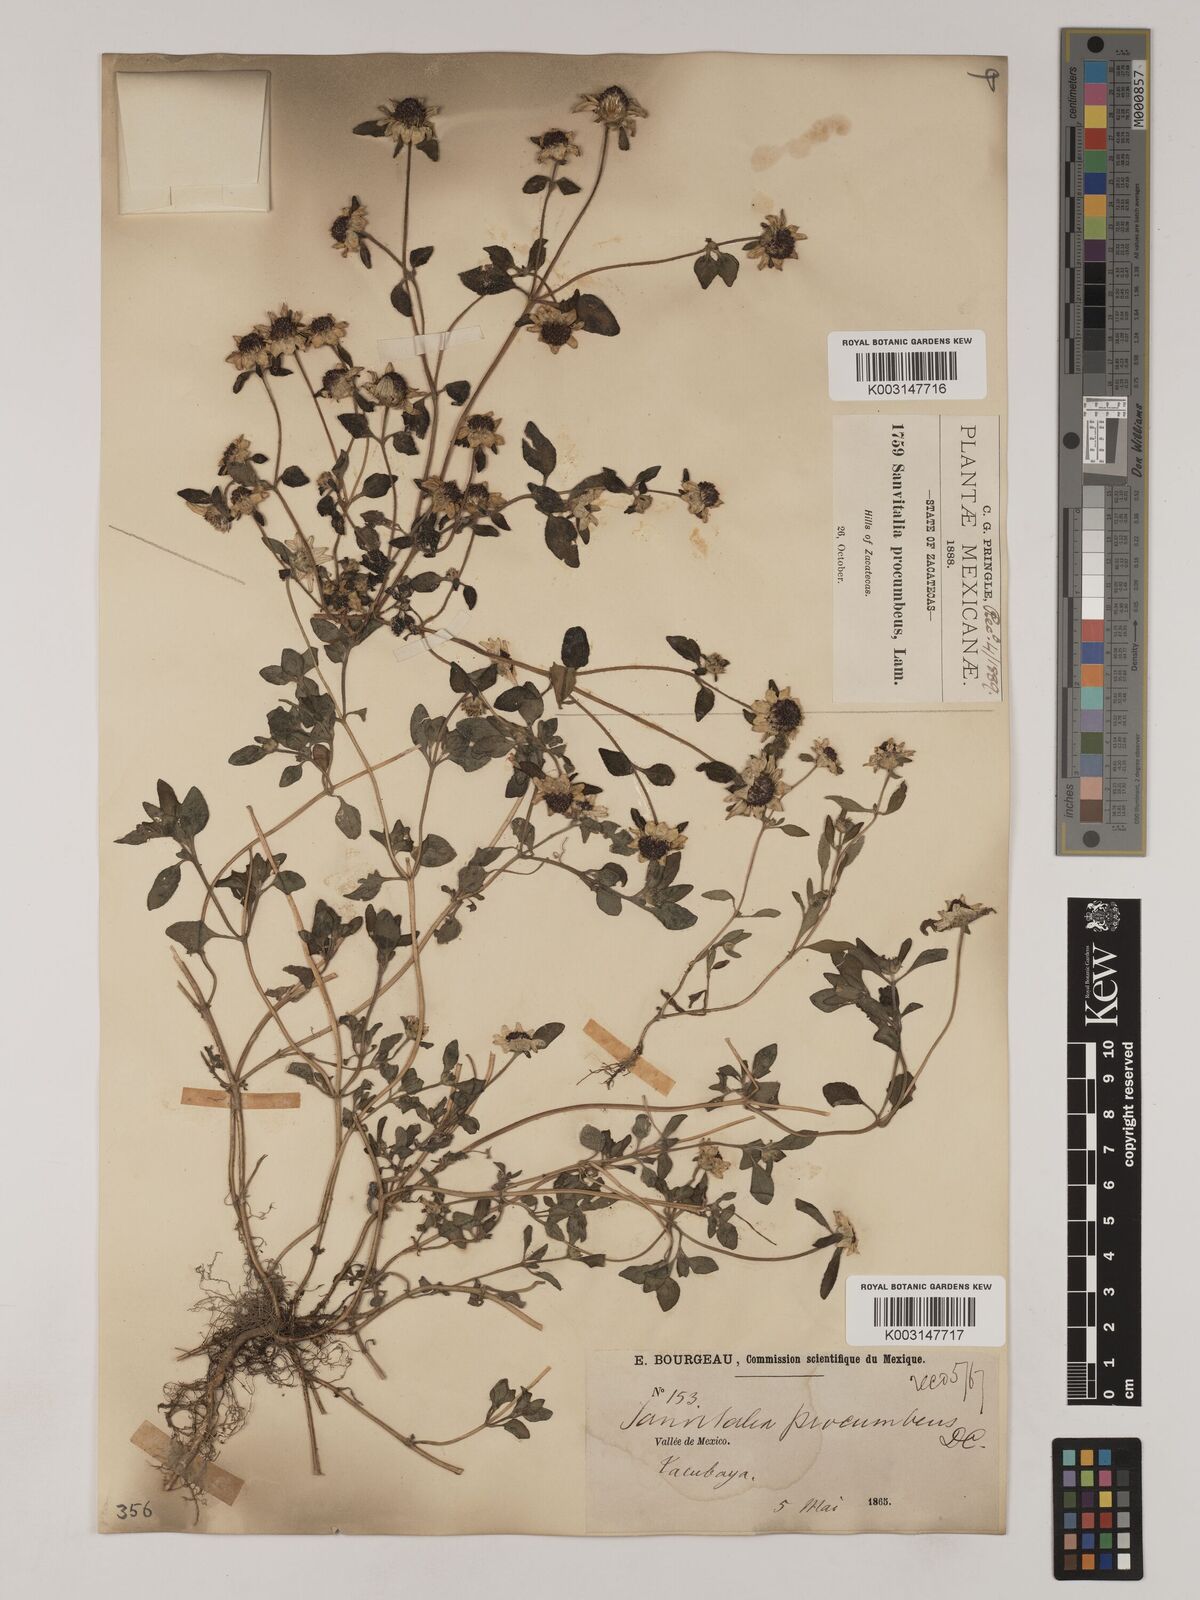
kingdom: Plantae
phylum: Tracheophyta
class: Magnoliopsida
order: Asterales
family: Asteraceae
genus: Sanvitalia
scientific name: Sanvitalia procumbens
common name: Mexican creeping zinnia
